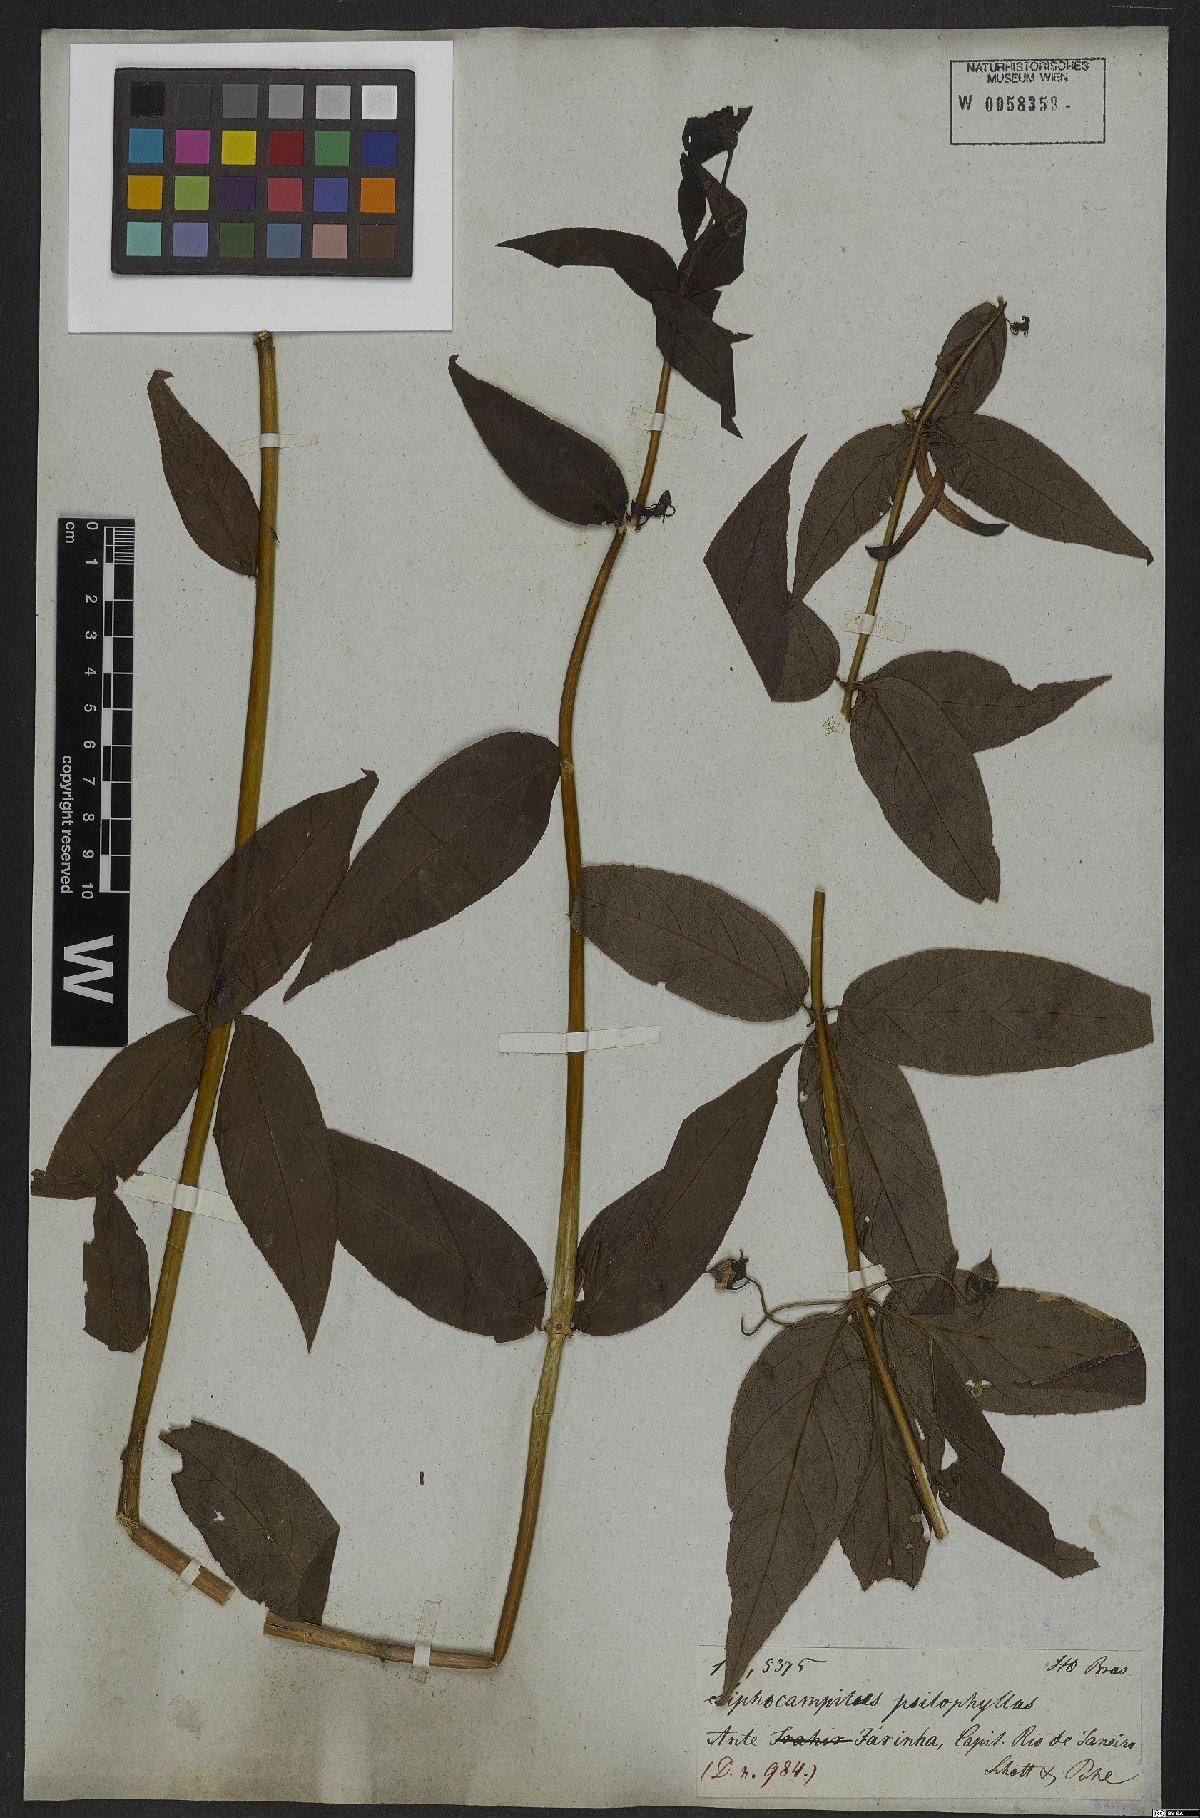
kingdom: Plantae
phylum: Tracheophyta
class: Magnoliopsida
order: Asterales
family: Campanulaceae
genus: Siphocampylus
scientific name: Siphocampylus psilophyllus
